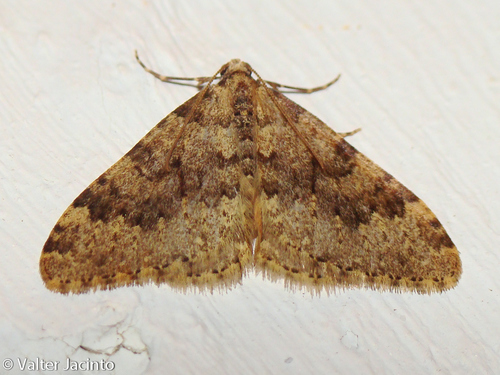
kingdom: Animalia
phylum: Arthropoda
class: Insecta
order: Lepidoptera
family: Geometridae
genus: Nebula
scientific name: Nebula ibericata
